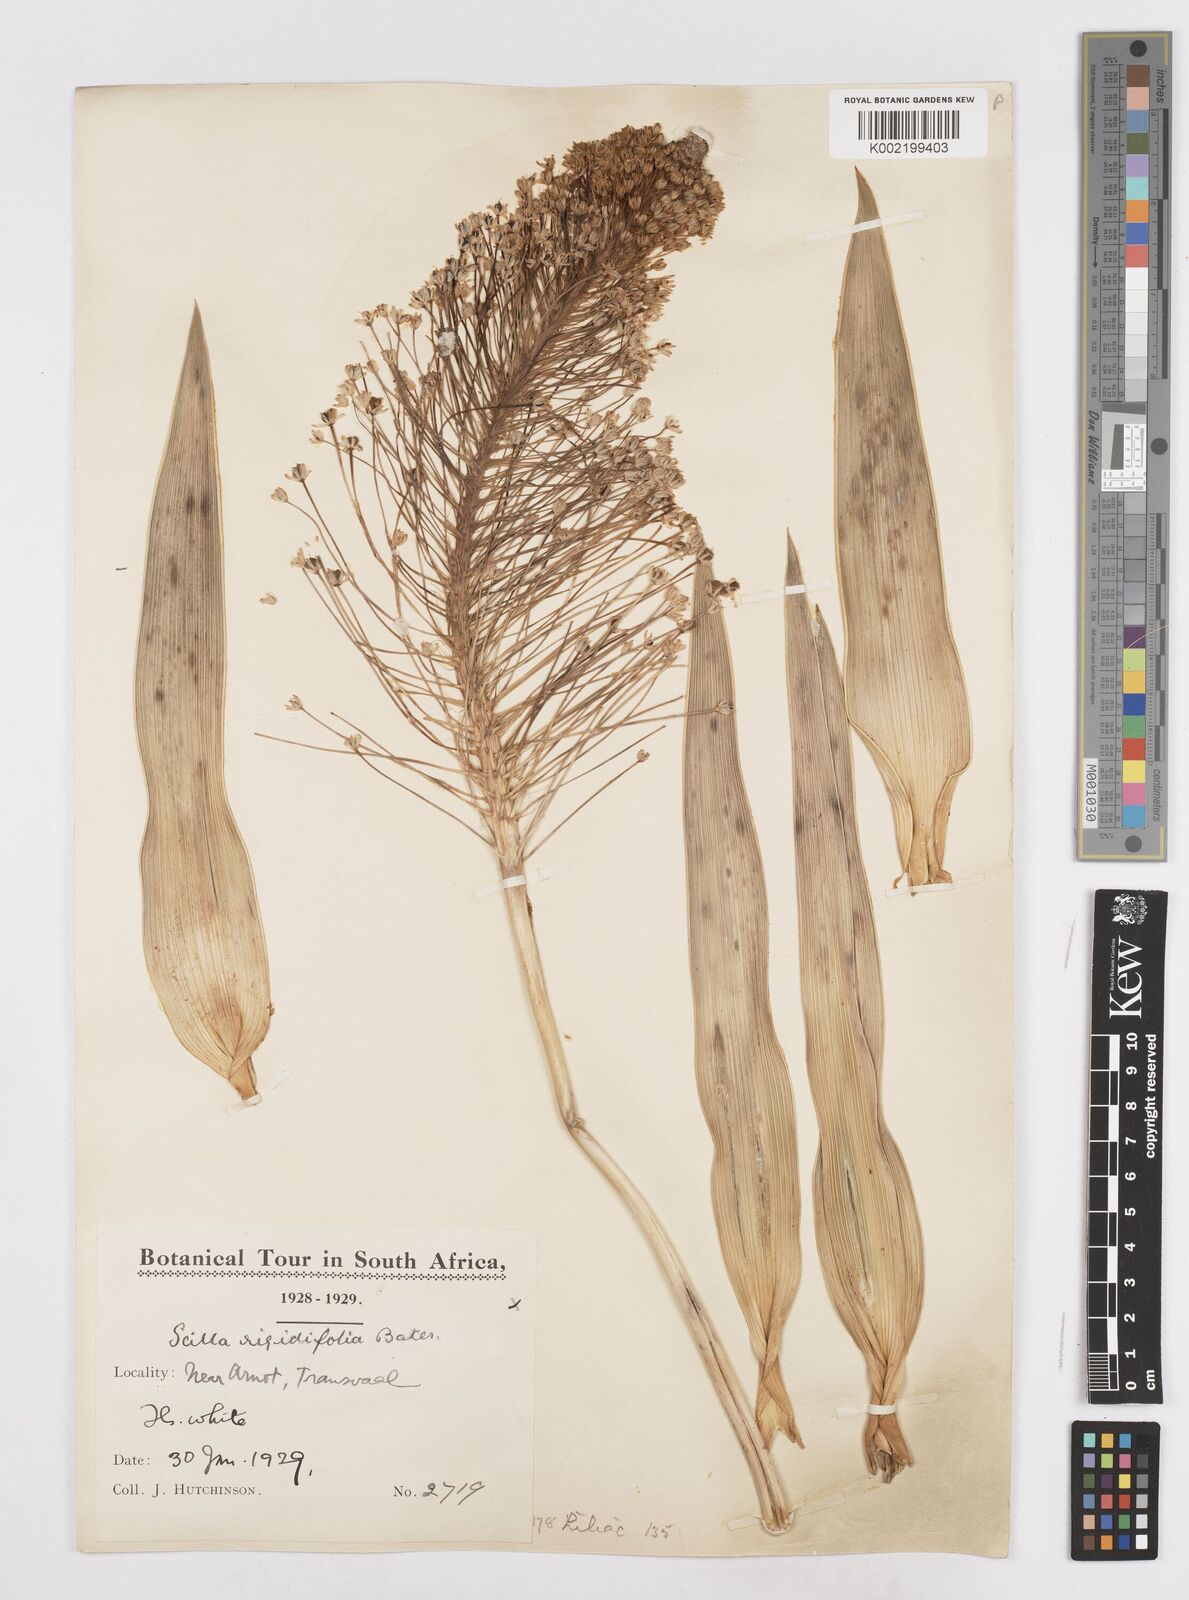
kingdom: Plantae
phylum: Tracheophyta
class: Liliopsida
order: Asparagales
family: Asparagaceae
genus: Schizocarphus
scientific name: Schizocarphus nervosus
